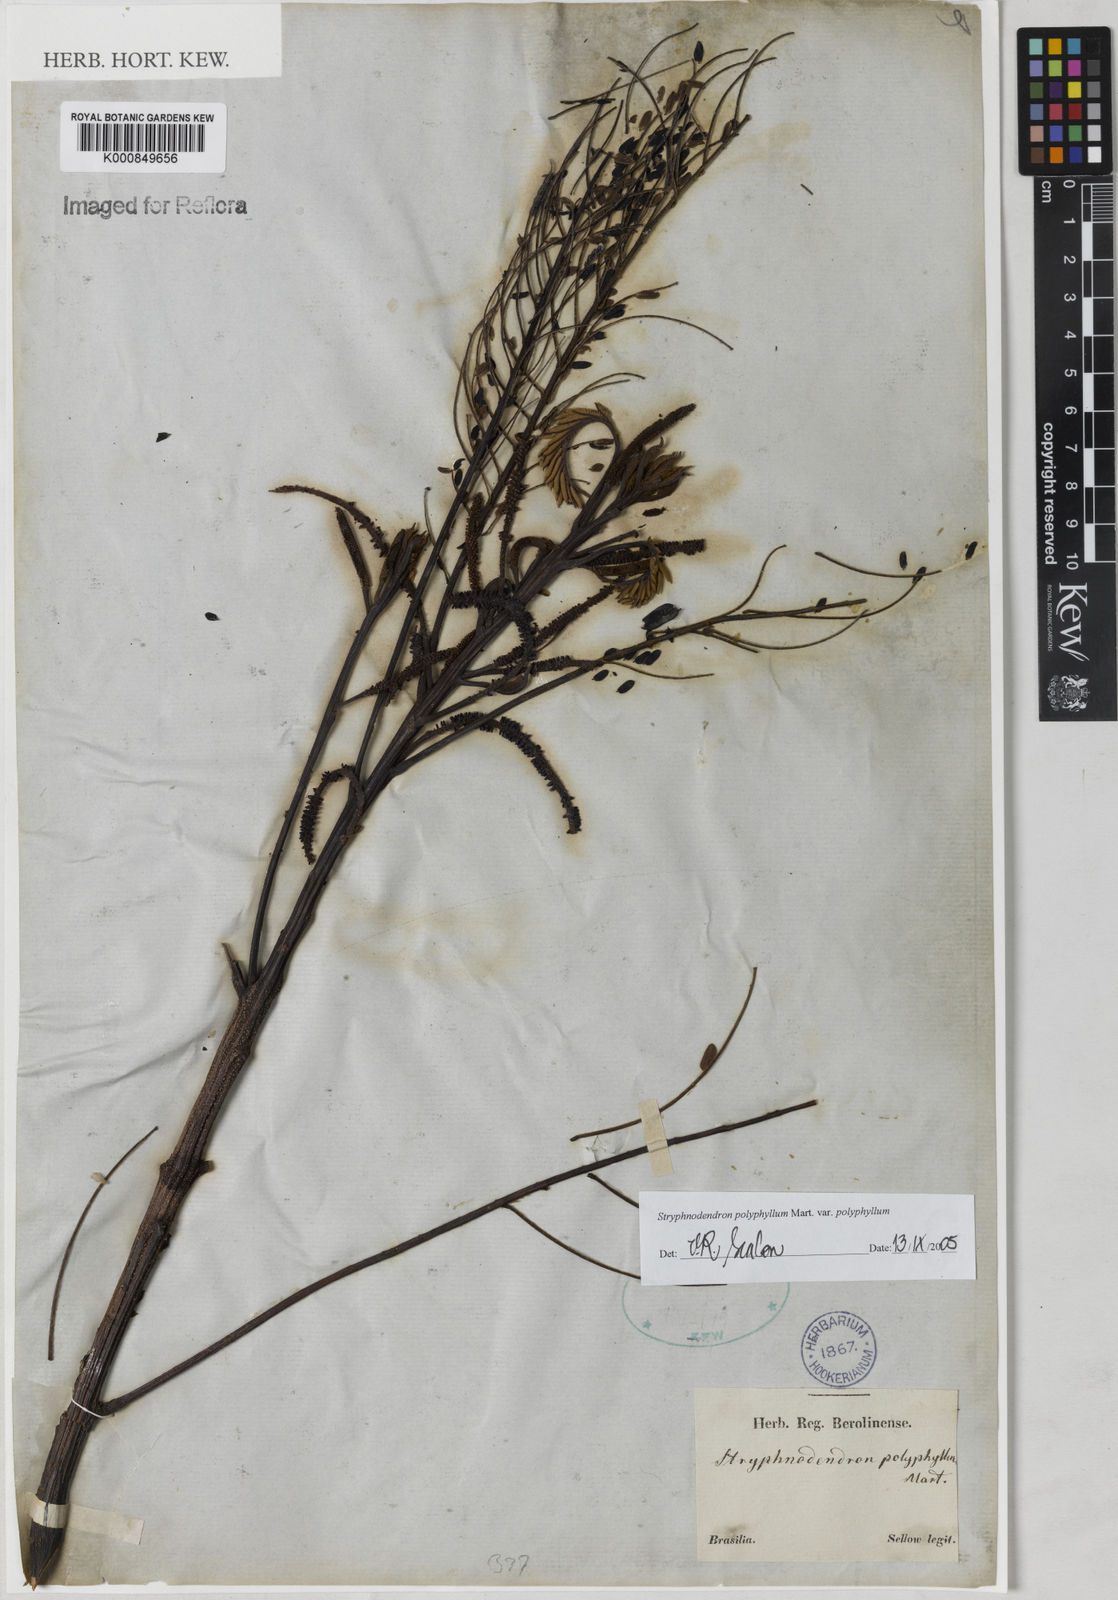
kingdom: Plantae
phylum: Tracheophyta
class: Magnoliopsida
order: Fabales
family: Fabaceae
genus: Stryphnodendron
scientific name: Stryphnodendron polyphyllum
